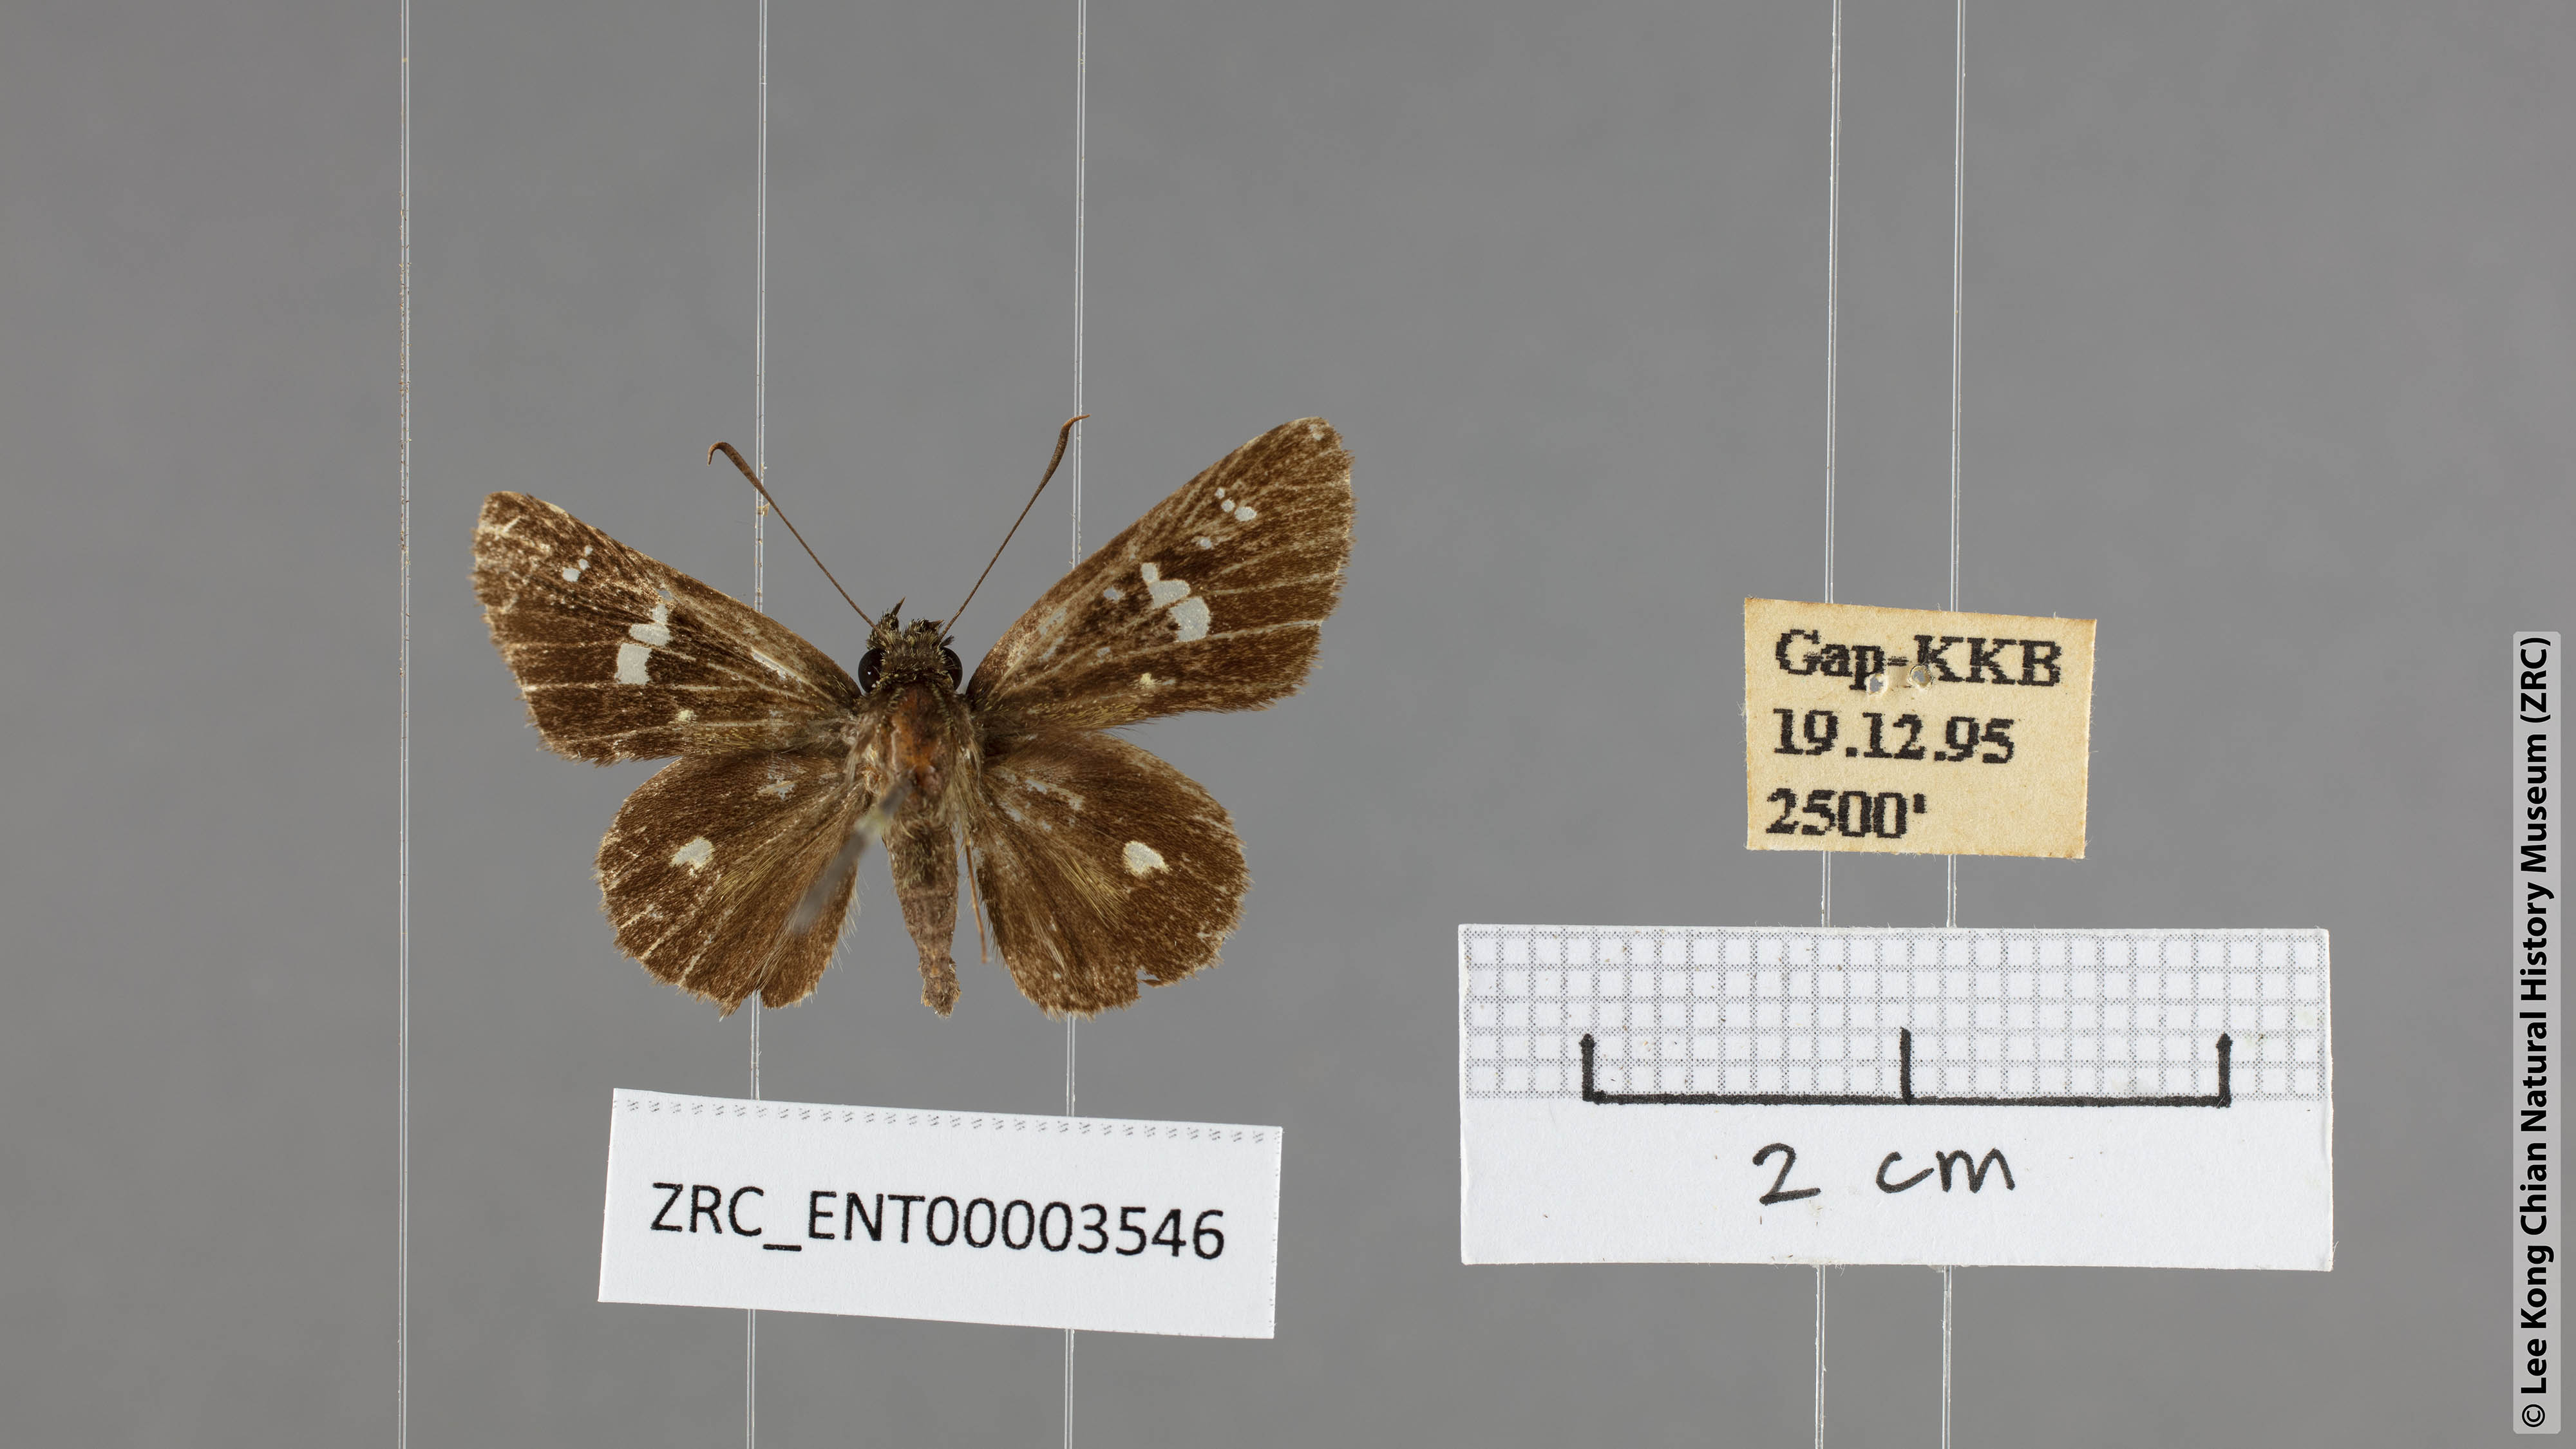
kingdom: Animalia
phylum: Arthropoda
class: Insecta
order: Lepidoptera
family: Hesperiidae
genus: Scobura
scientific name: Scobura phiditia
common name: Malay forest bob
